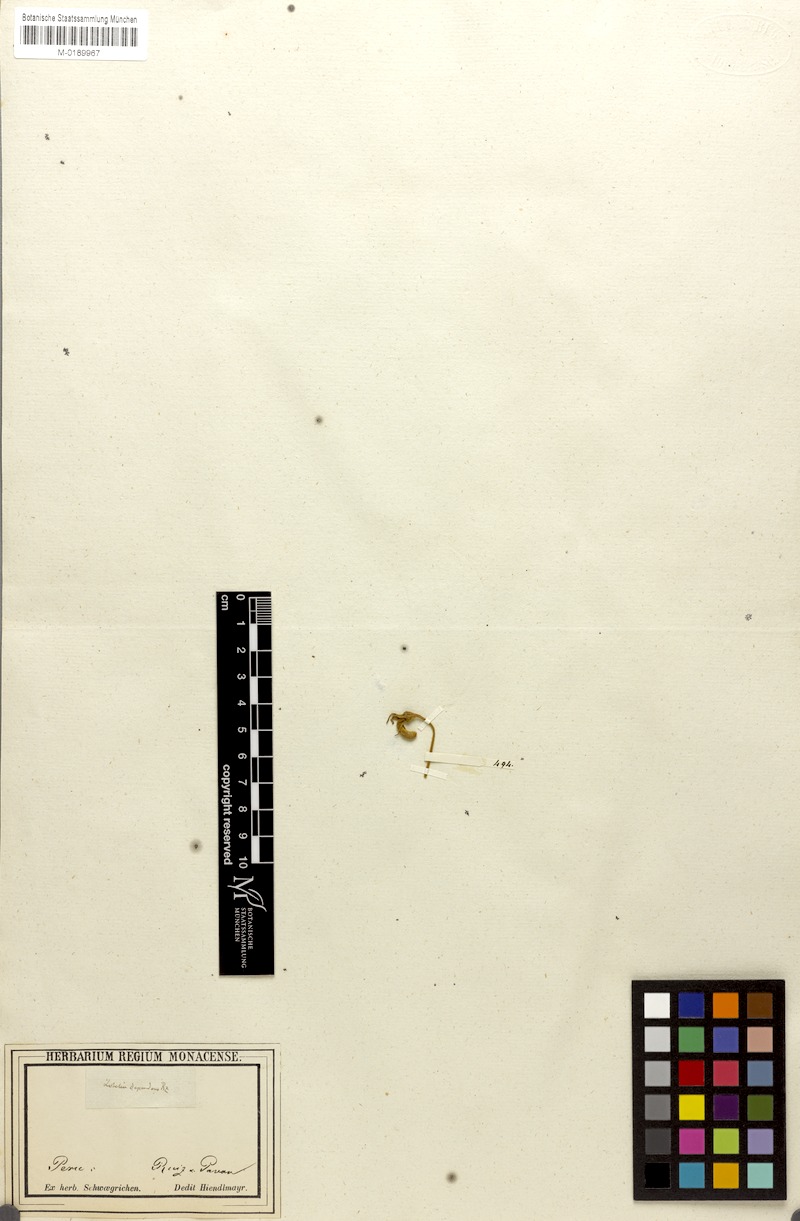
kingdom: Plantae
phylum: Tracheophyta
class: Magnoliopsida
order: Asterales
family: Campanulaceae
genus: Siphocampylus
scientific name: Siphocampylus dependens
